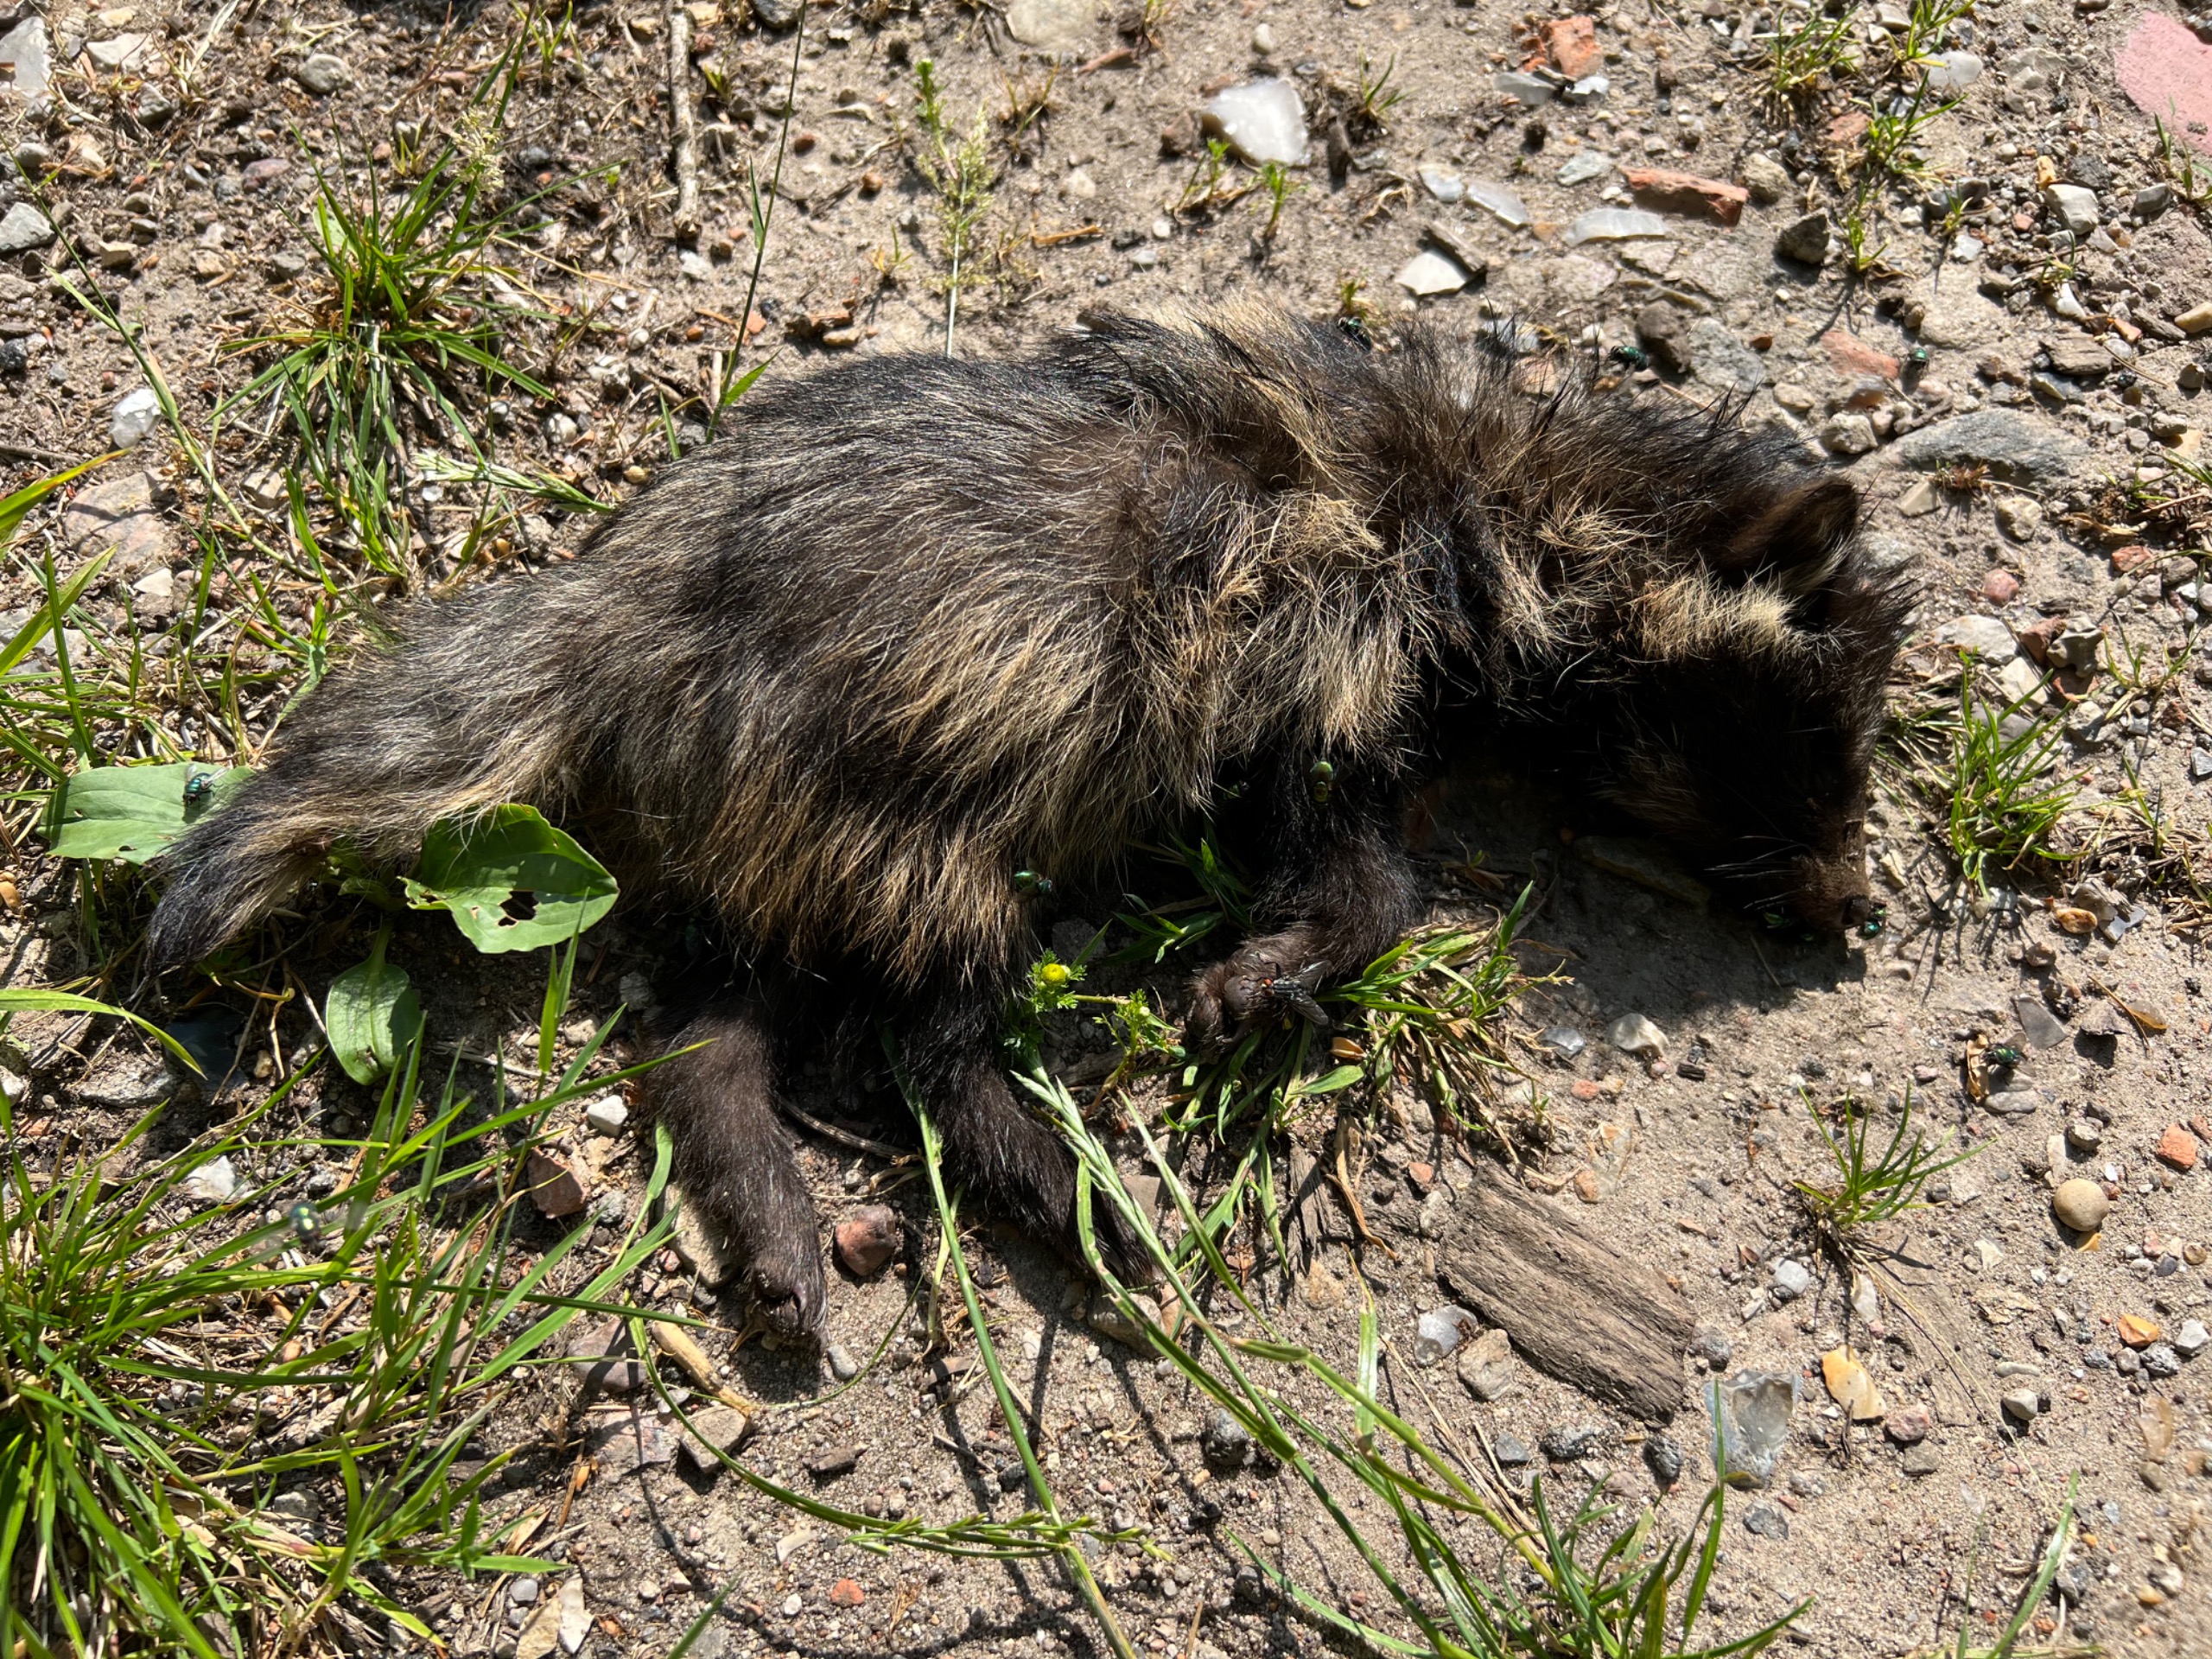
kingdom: Animalia
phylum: Chordata
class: Mammalia
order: Carnivora
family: Canidae
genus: Nyctereutes
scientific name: Nyctereutes procyonoides
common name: Mårhund
